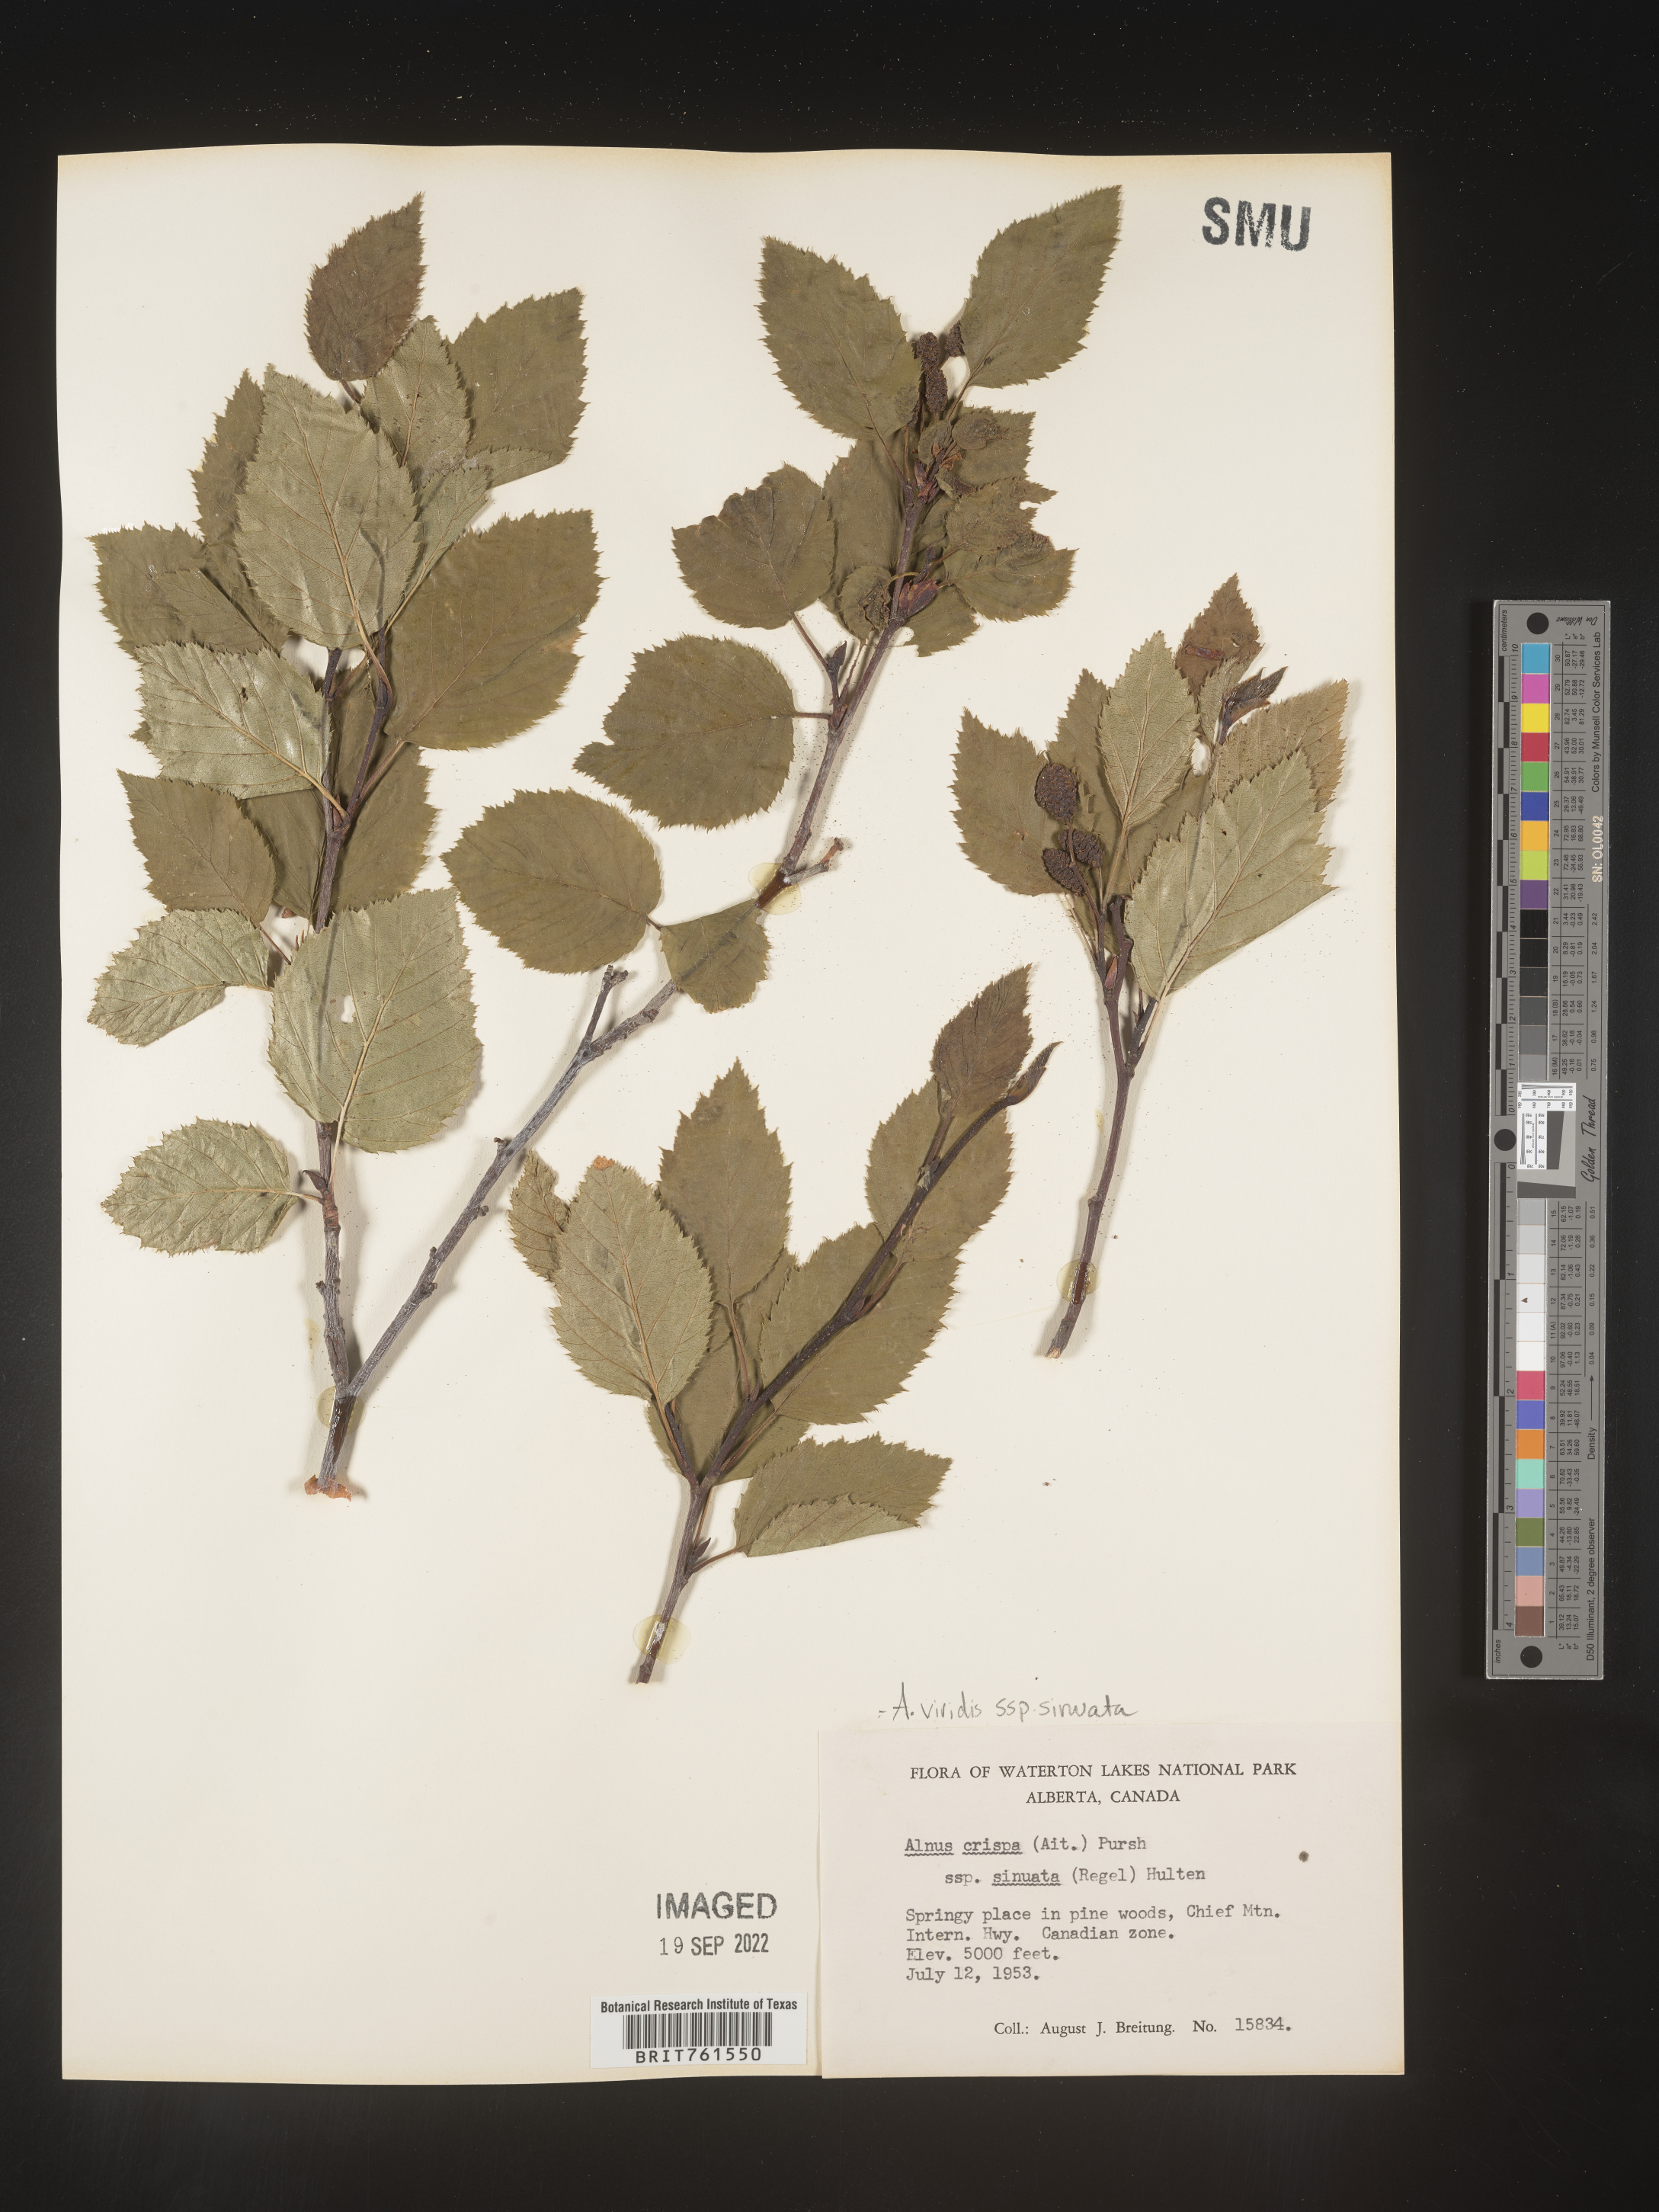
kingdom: Plantae
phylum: Tracheophyta
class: Magnoliopsida
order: Fagales
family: Betulaceae
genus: Alnus
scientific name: Alnus alnobetula
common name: Green alder
